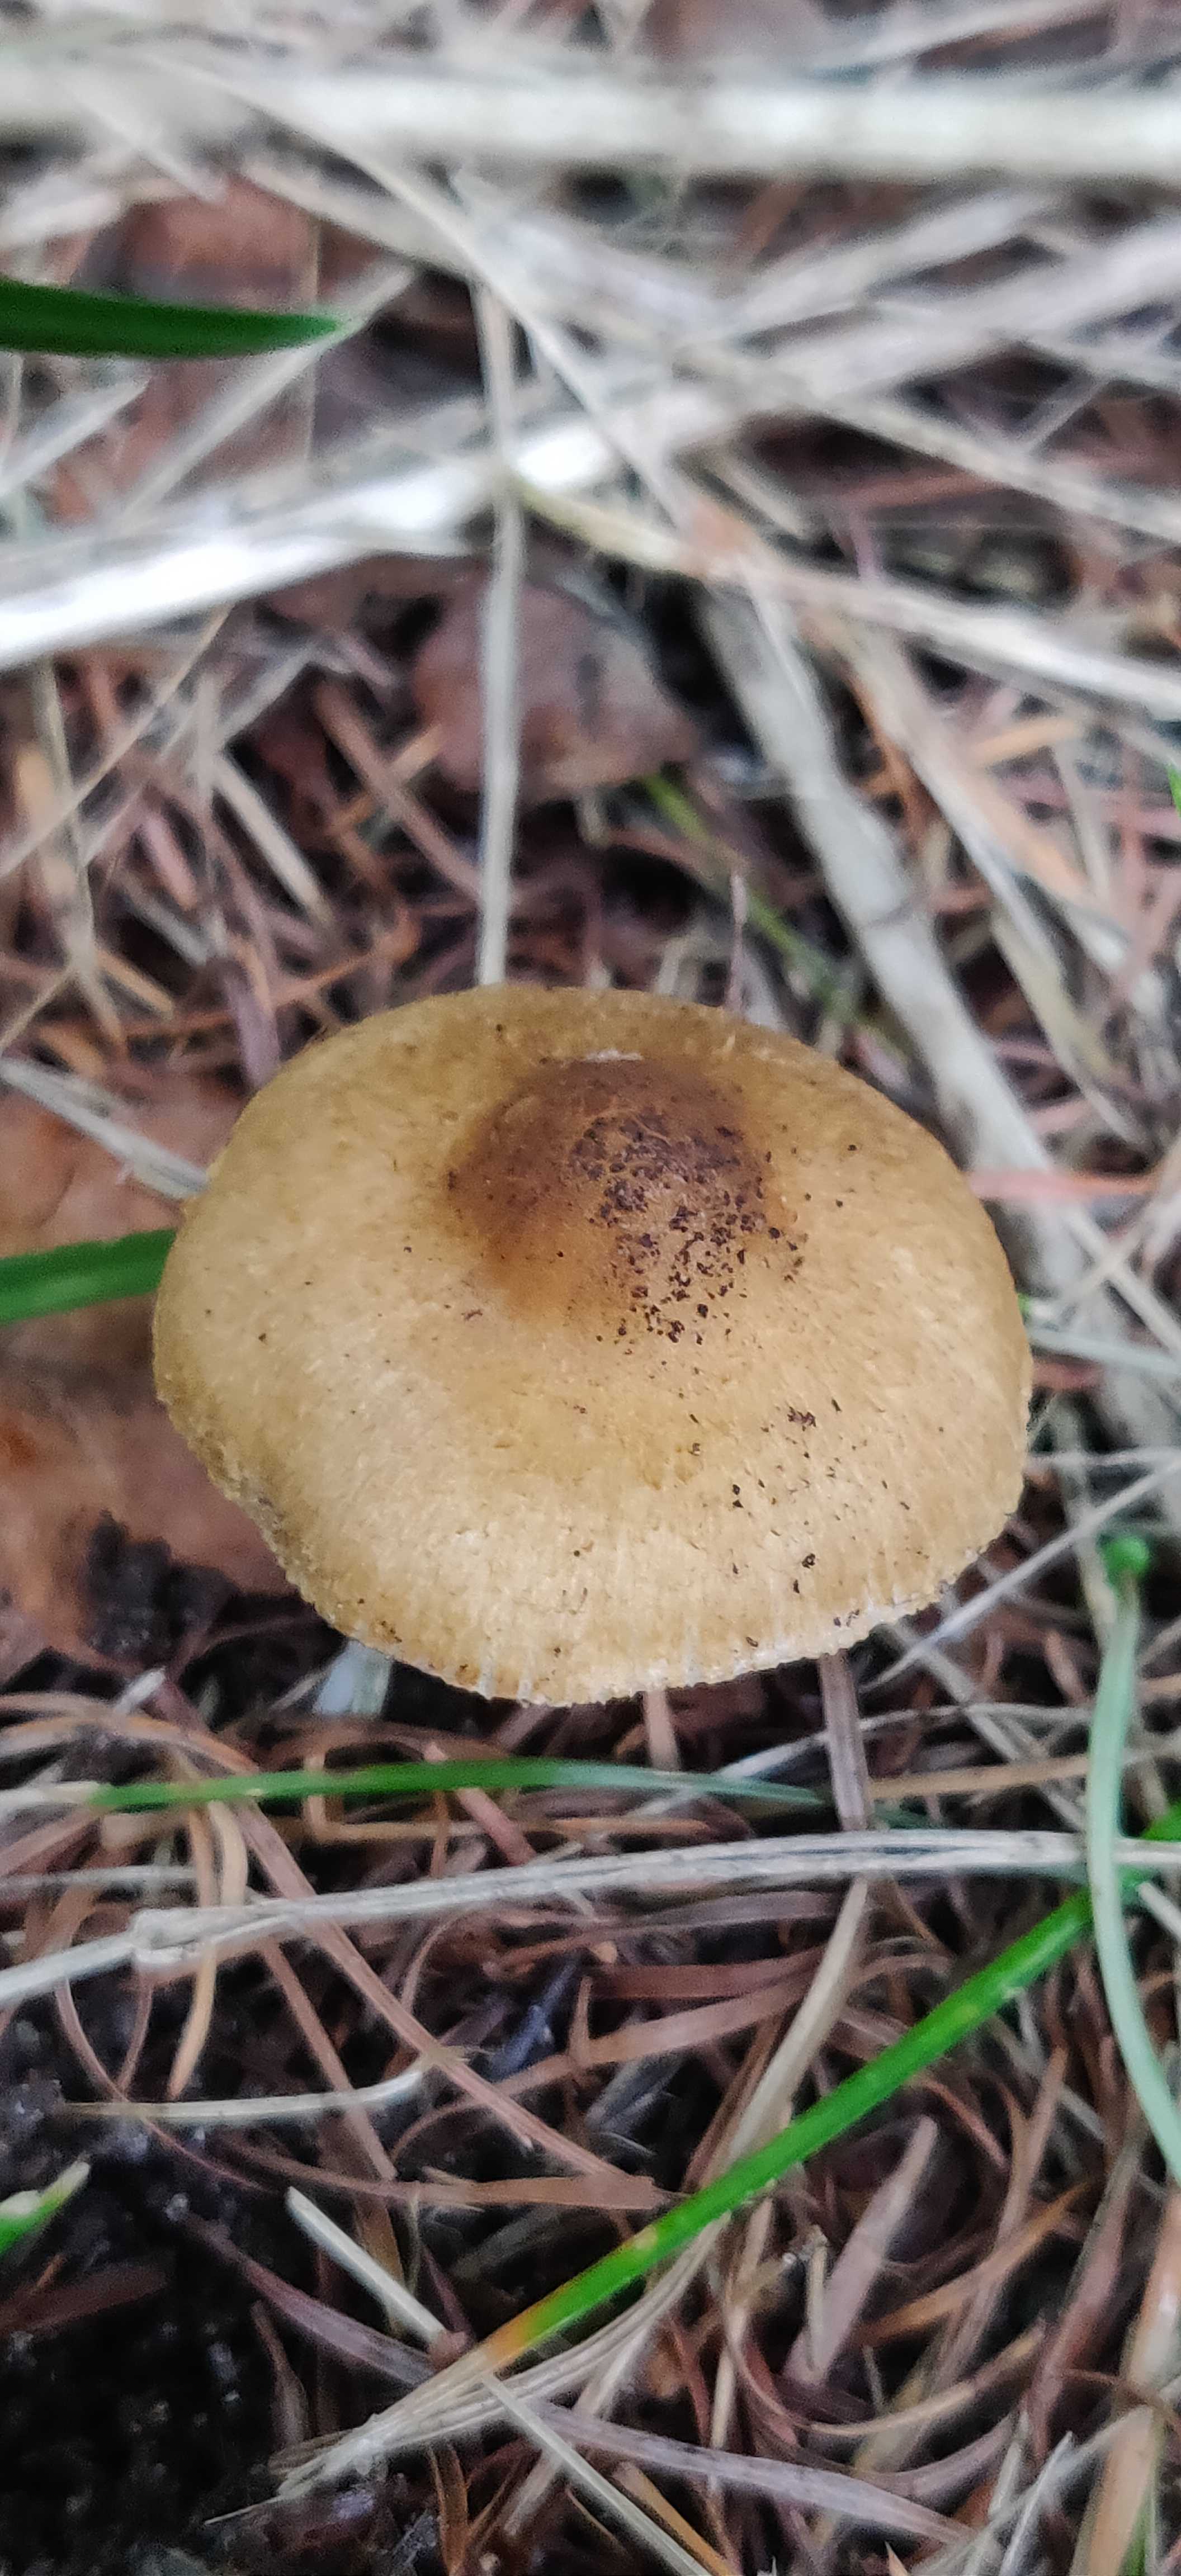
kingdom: Fungi
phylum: Basidiomycota
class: Agaricomycetes
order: Agaricales
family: Inocybaceae
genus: Inocybe
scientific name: Inocybe
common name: trævlhat
